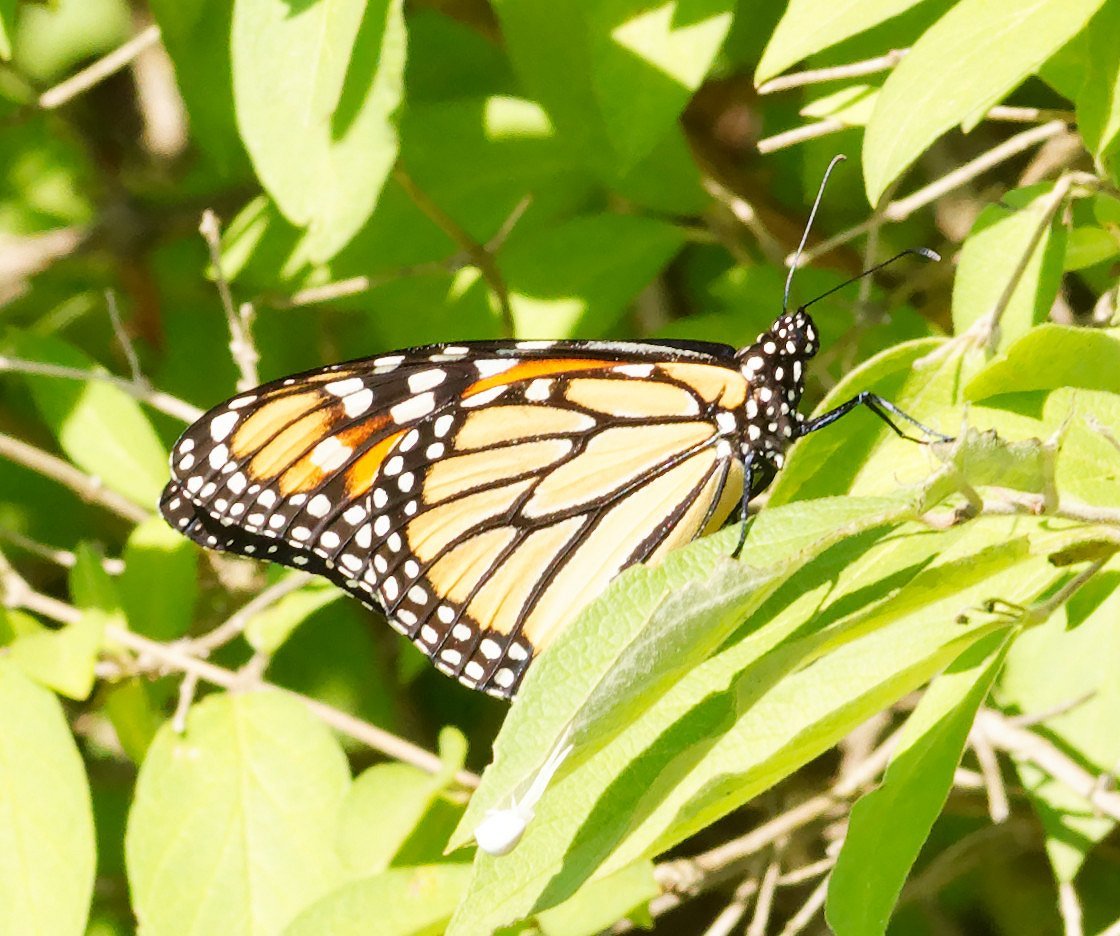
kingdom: Animalia
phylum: Arthropoda
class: Insecta
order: Lepidoptera
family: Nymphalidae
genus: Danaus
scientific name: Danaus plexippus
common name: Monarch
